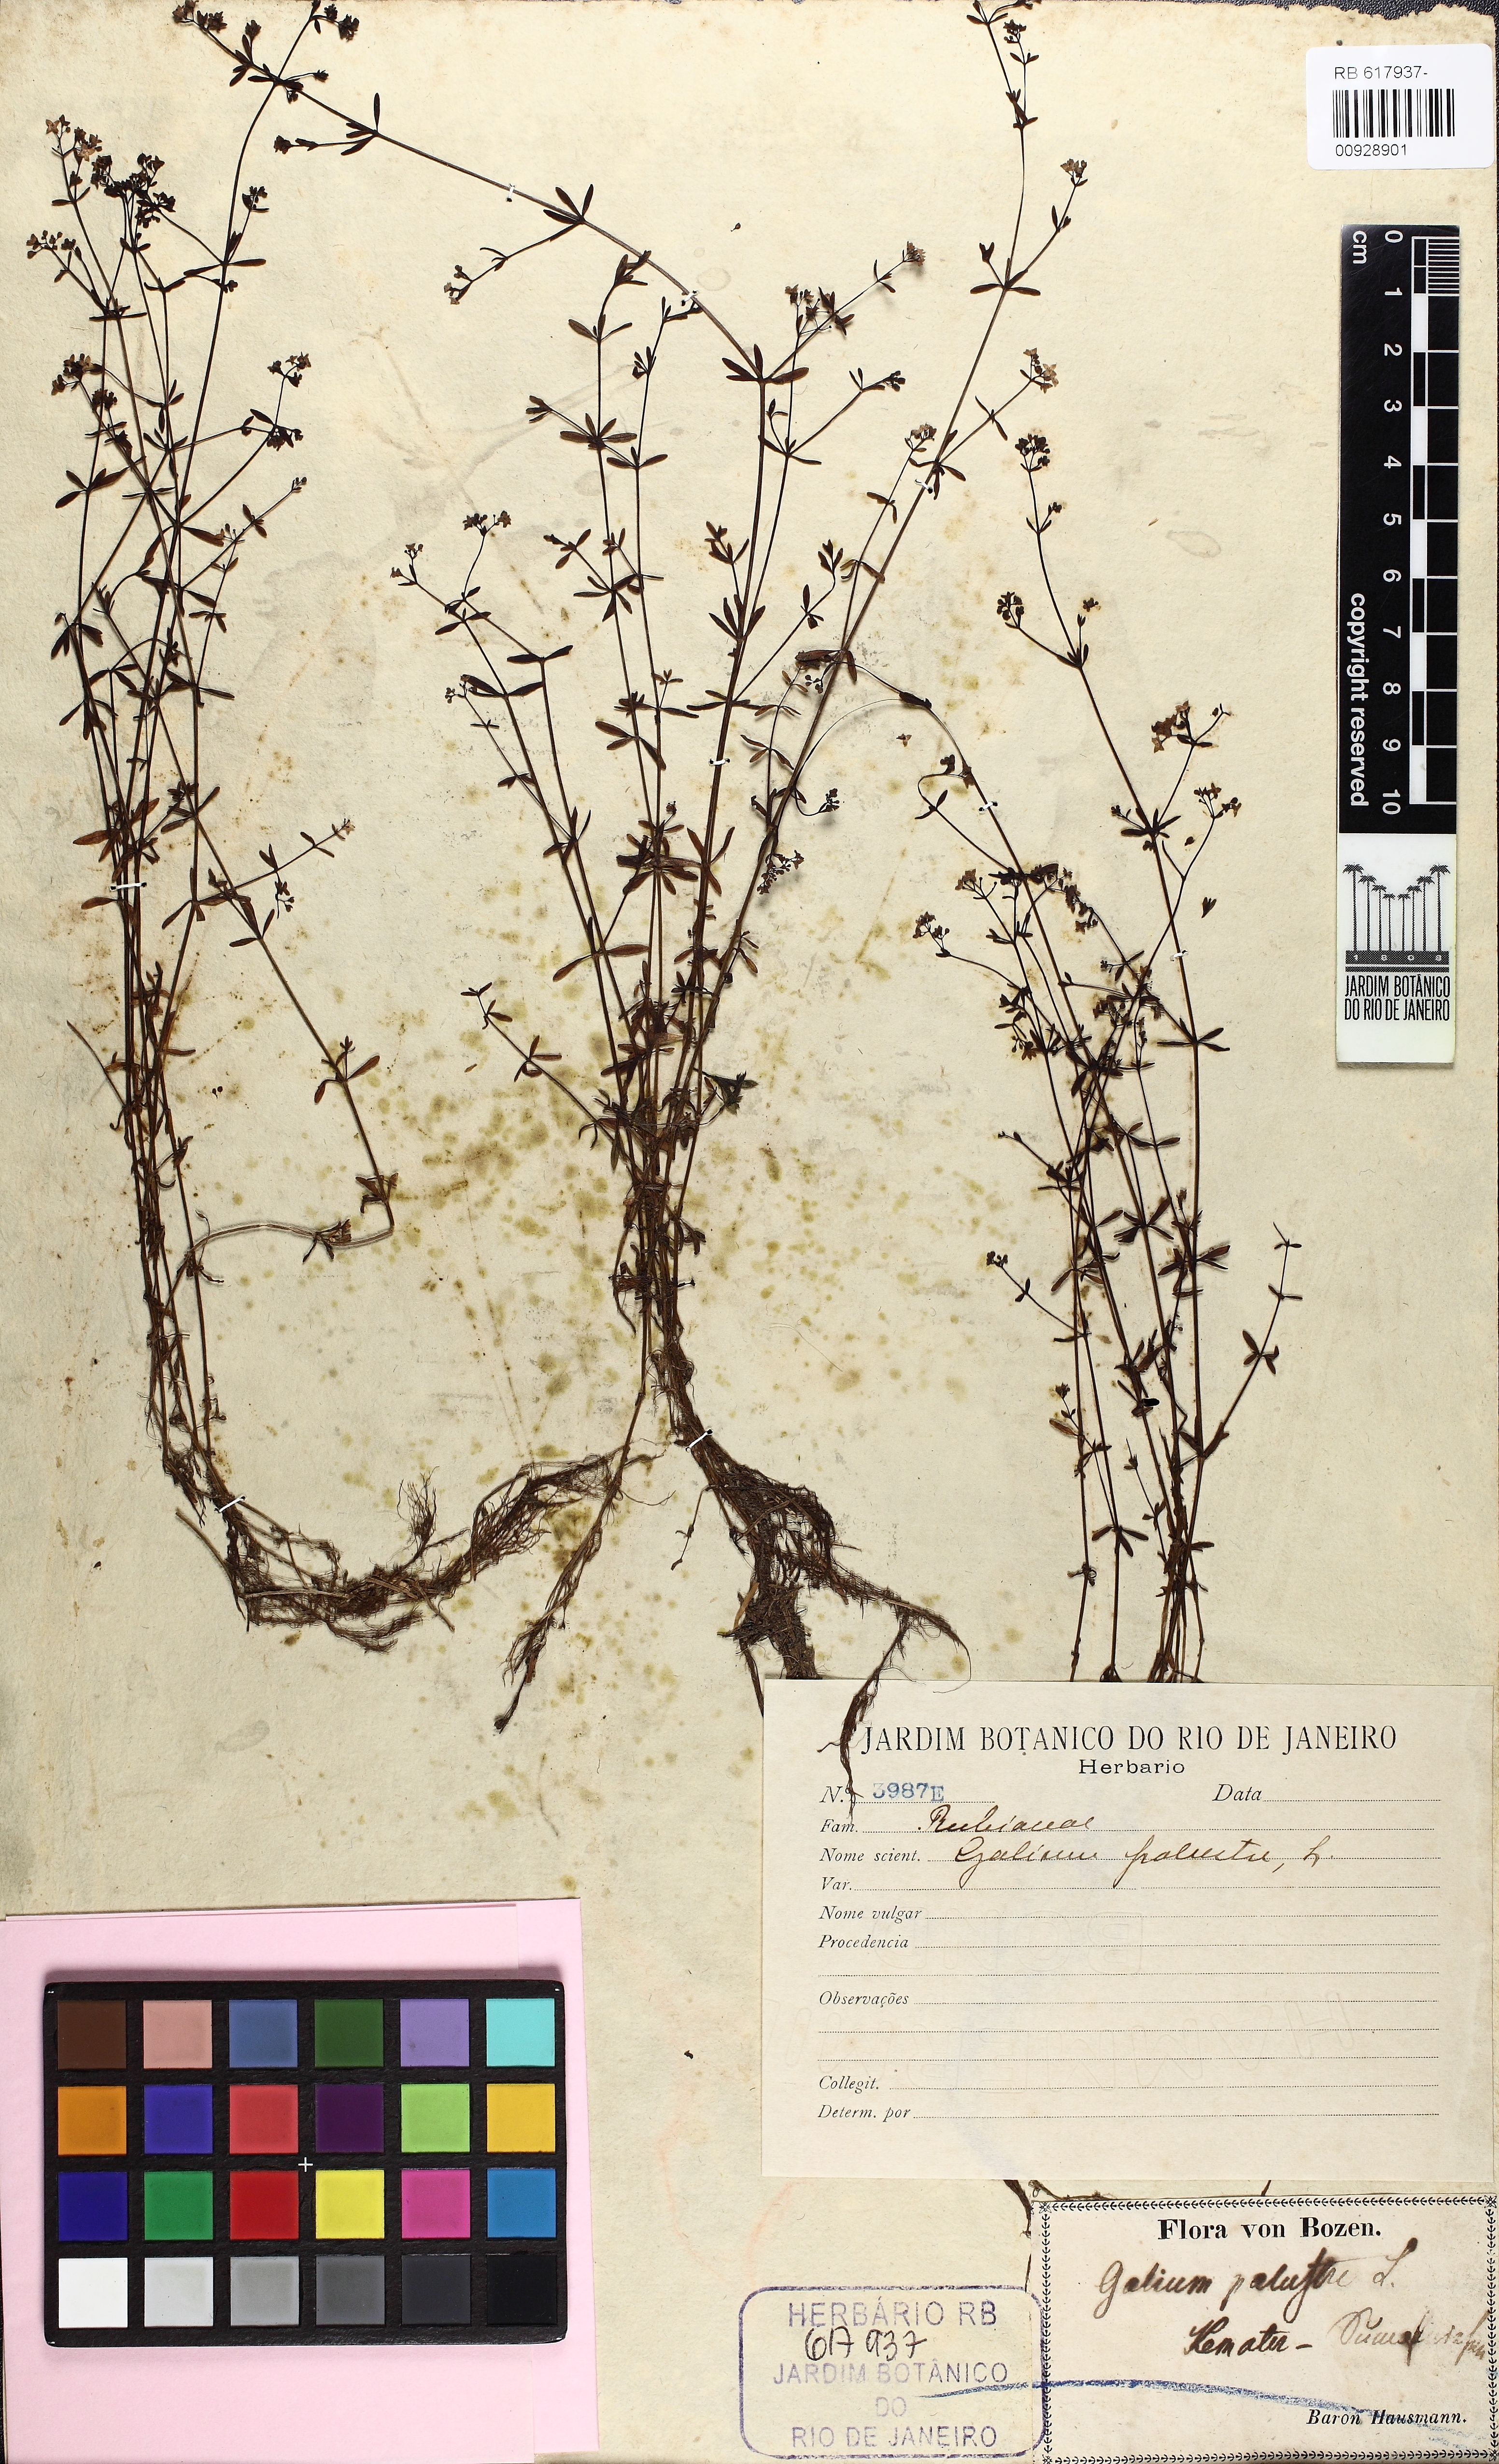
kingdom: Plantae
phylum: Tracheophyta
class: Magnoliopsida
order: Gentianales
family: Rubiaceae
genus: Galium
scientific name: Galium palustre
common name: Common marsh-bedstraw
